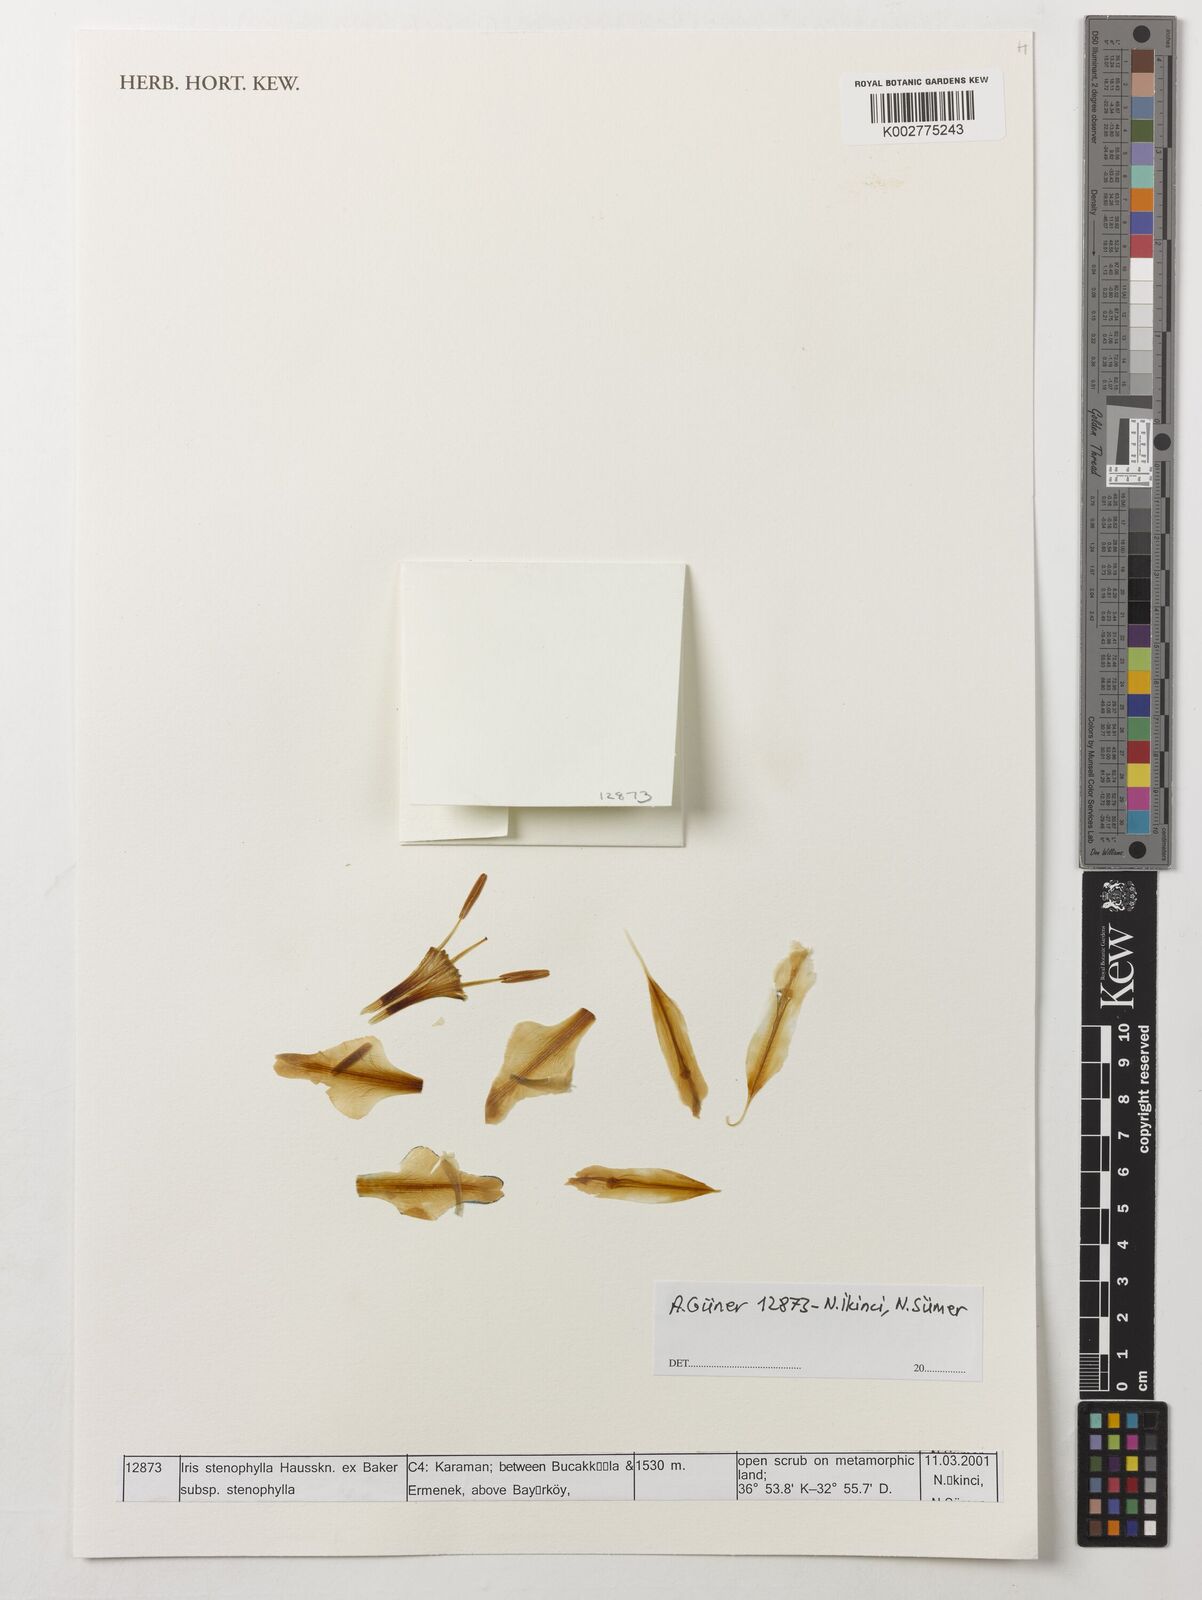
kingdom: Plantae
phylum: Tracheophyta
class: Liliopsida
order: Asparagales
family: Iridaceae
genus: Iris
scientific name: Iris stenophylla
